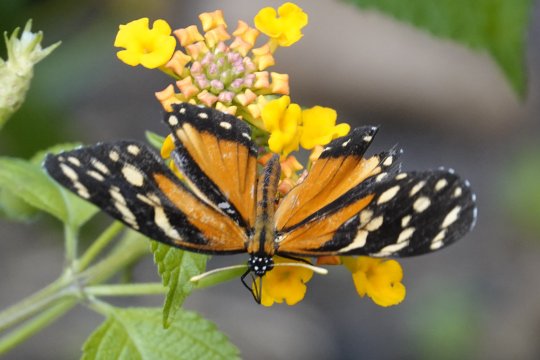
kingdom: Animalia
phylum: Arthropoda
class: Insecta
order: Lepidoptera
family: Nymphalidae
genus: Eresia
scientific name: Eresia ithomioides
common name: Variable Crescent
